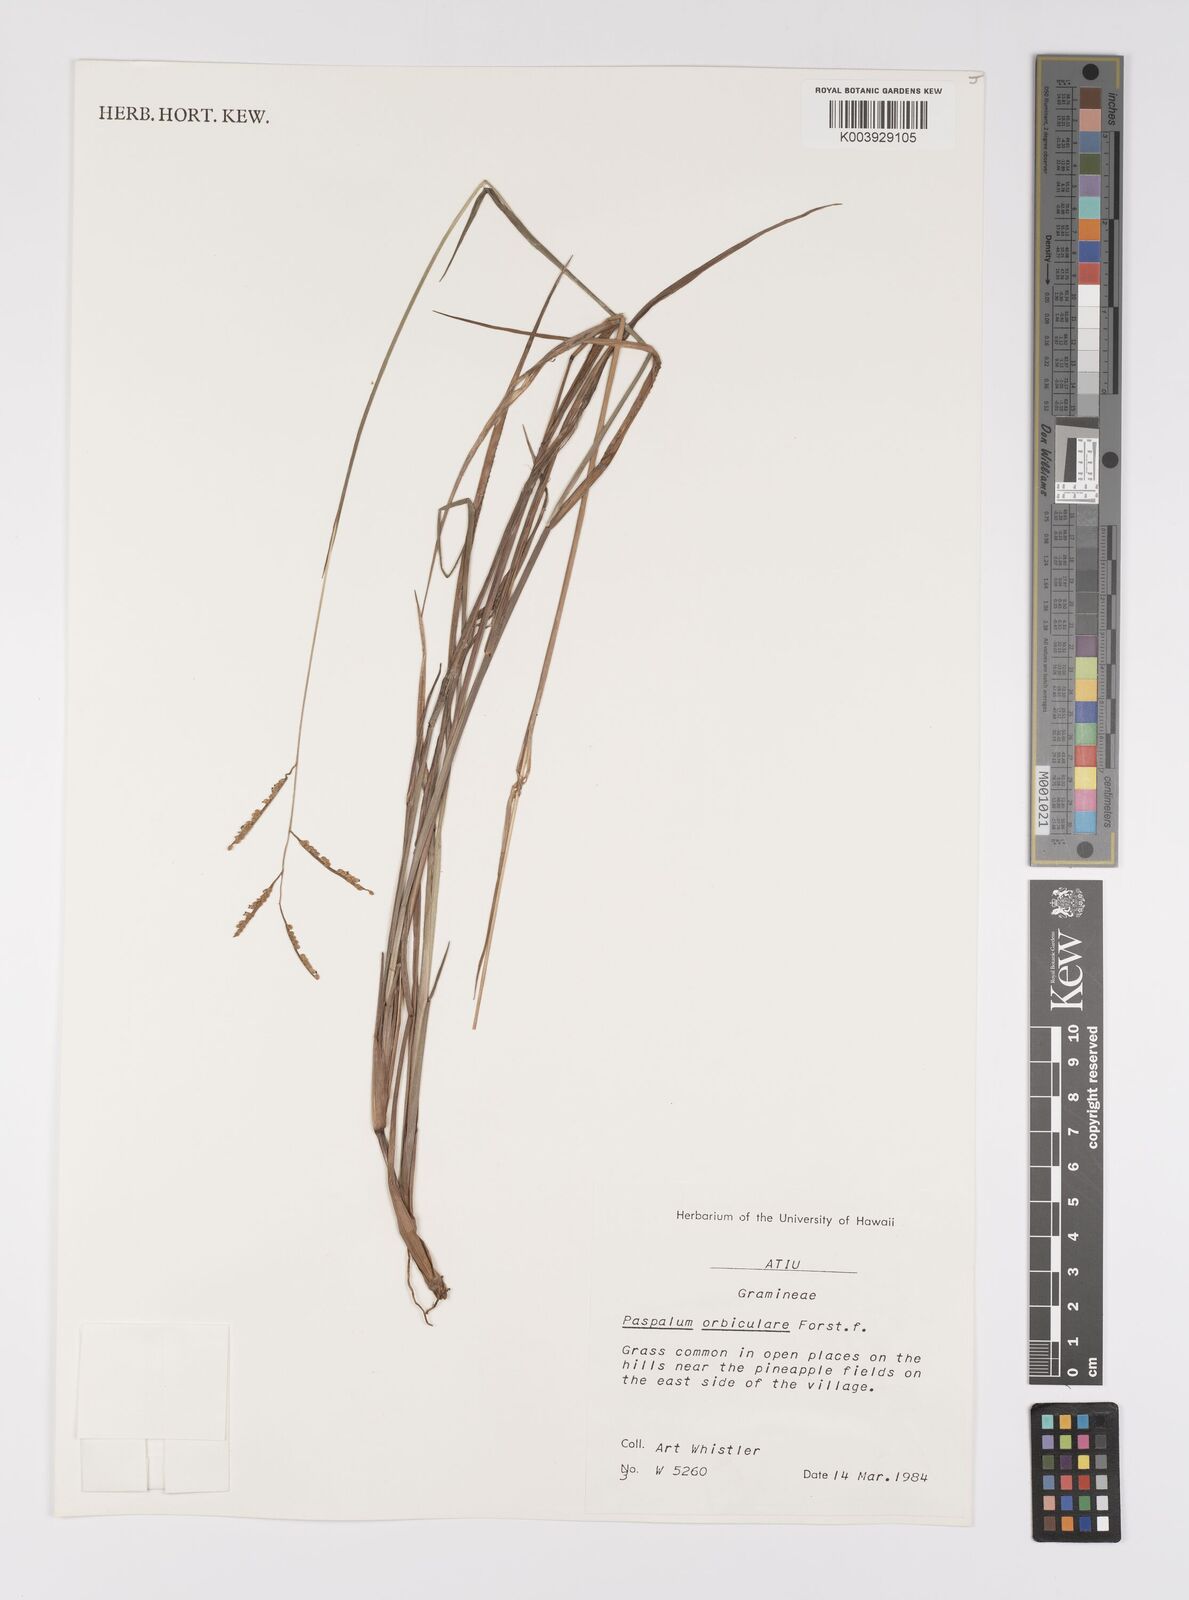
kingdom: Plantae
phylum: Tracheophyta
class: Liliopsida
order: Poales
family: Poaceae
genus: Paspalum
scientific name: Paspalum scrobiculatum
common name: Kodo millet
